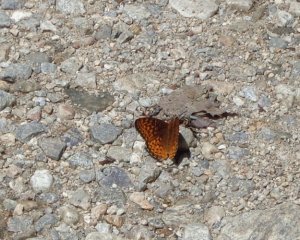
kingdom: Animalia
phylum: Arthropoda
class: Insecta
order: Lepidoptera
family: Nymphalidae
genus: Speyeria
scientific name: Speyeria atlantis
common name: Atlantis Fritillary
